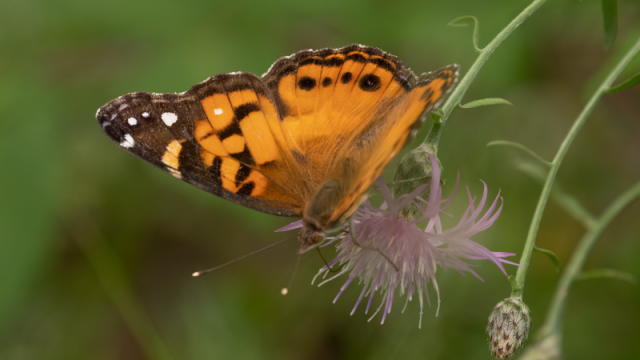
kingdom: Animalia
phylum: Arthropoda
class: Insecta
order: Lepidoptera
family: Nymphalidae
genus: Vanessa
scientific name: Vanessa virginiensis
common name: American Lady
